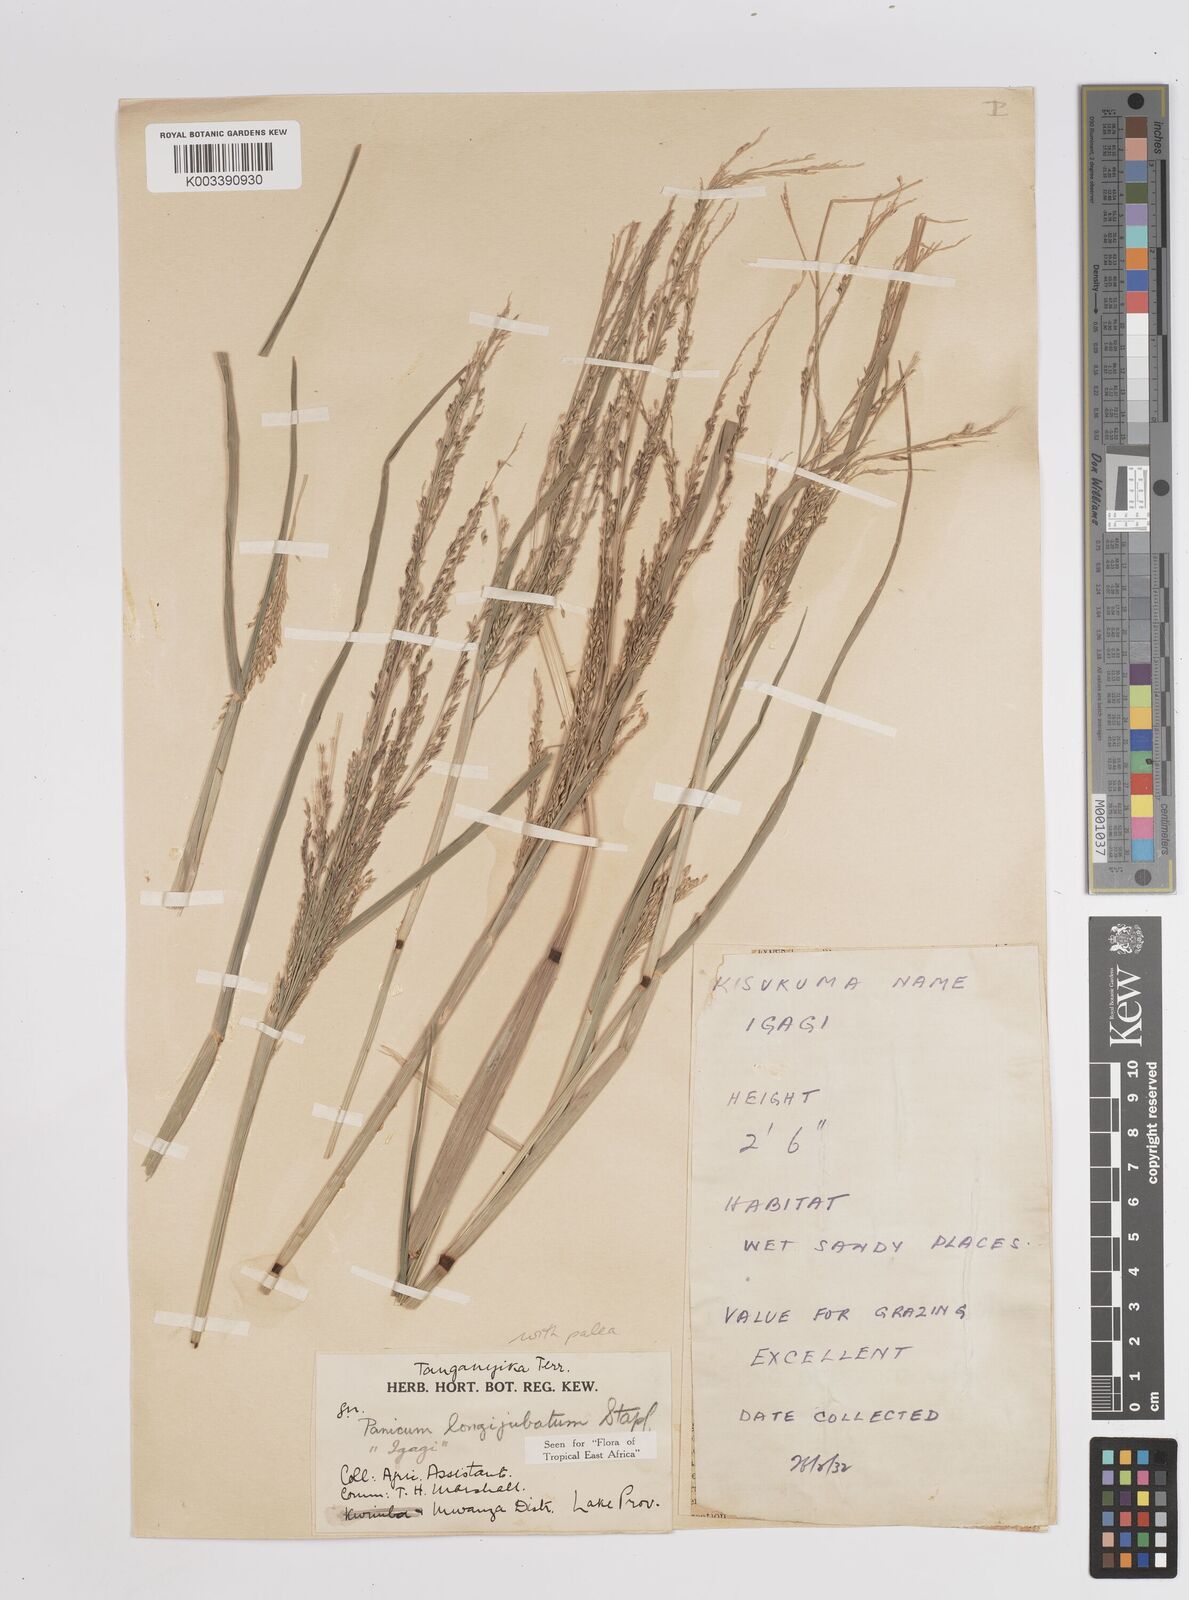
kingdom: Plantae
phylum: Tracheophyta
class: Liliopsida
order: Poales
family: Poaceae
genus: Panicum
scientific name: Panicum subalbidum
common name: Elbow buffalo grass
